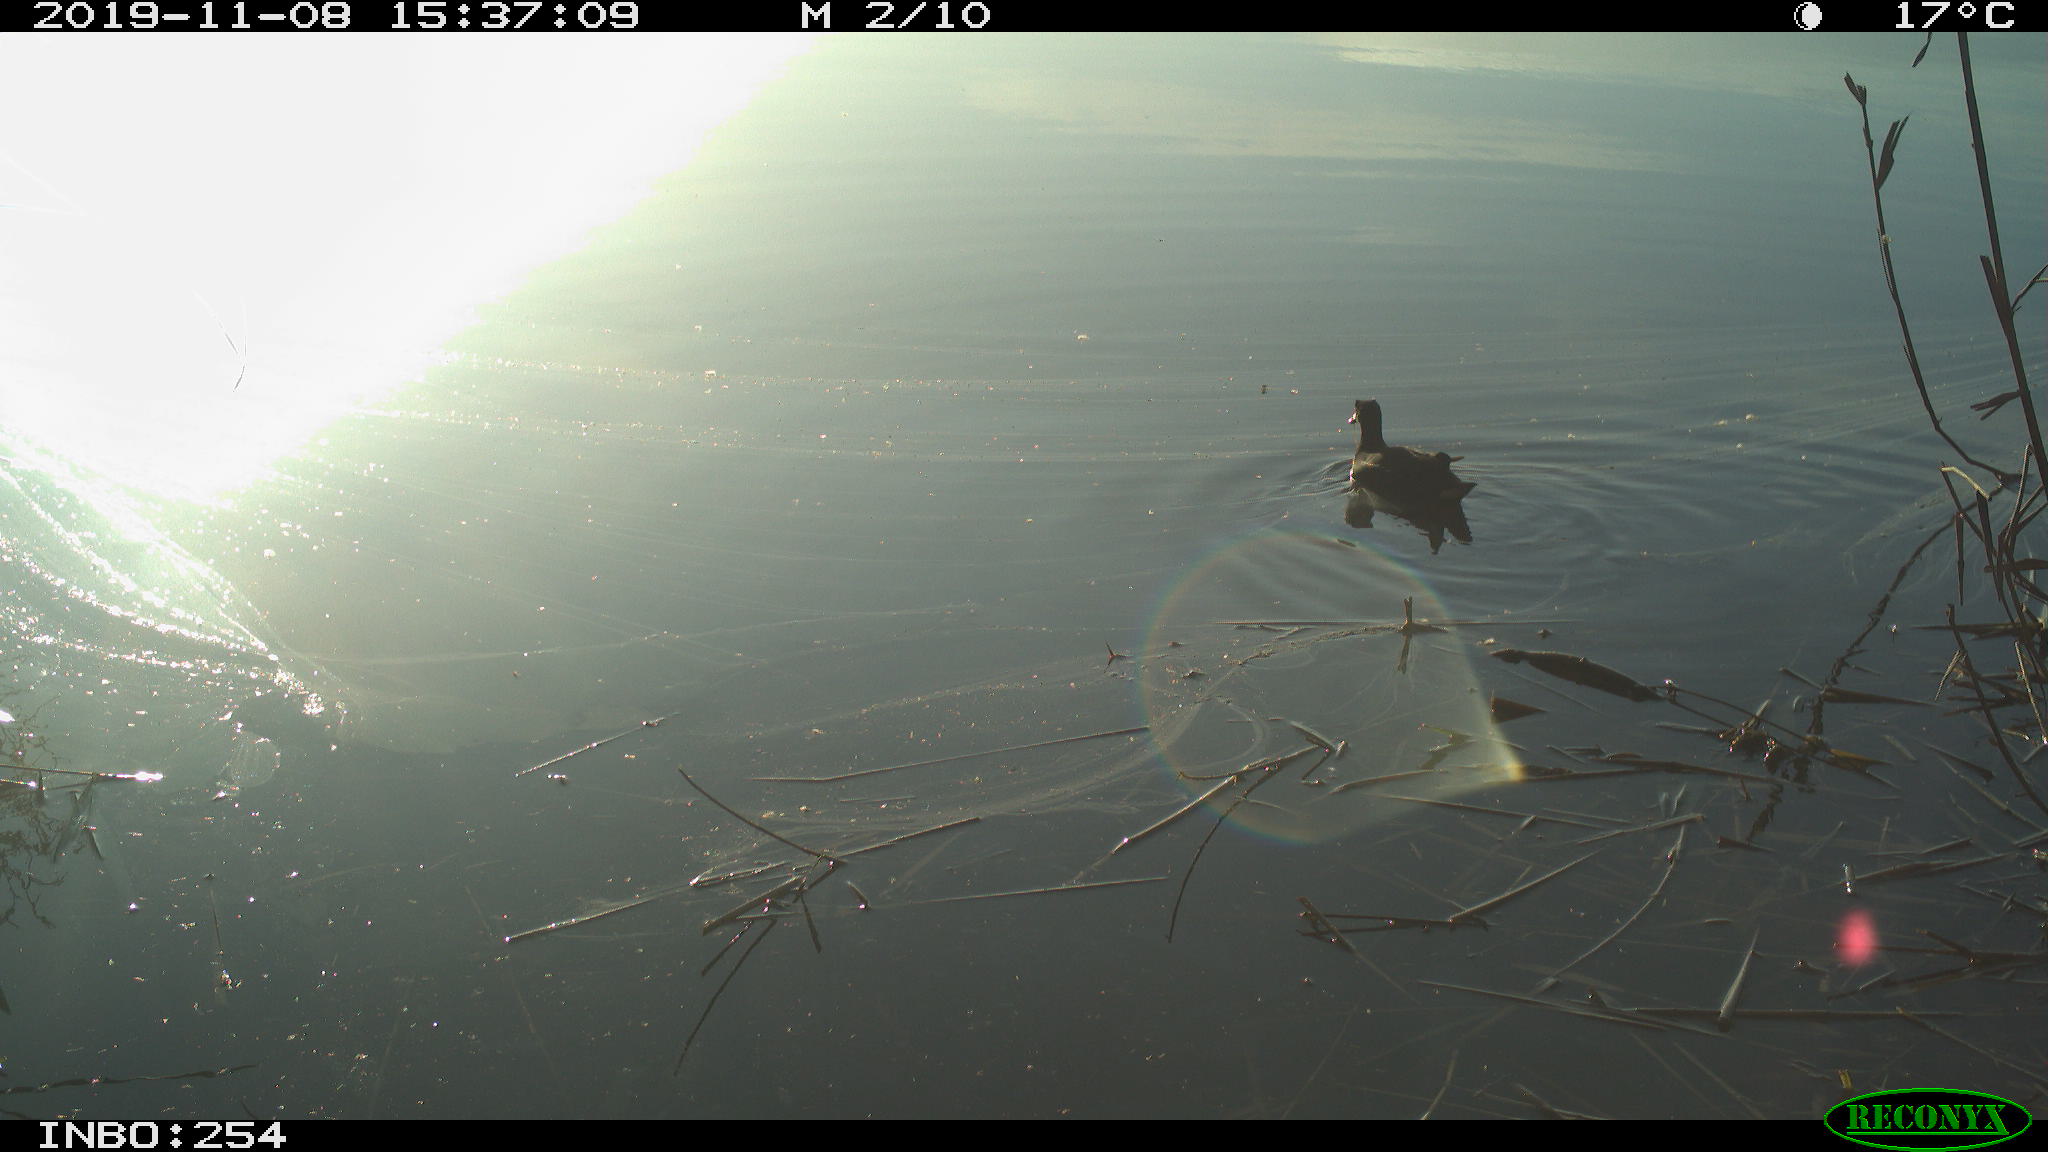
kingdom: Animalia
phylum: Chordata
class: Aves
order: Gruiformes
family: Rallidae
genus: Gallinula
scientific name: Gallinula chloropus
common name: Common moorhen
